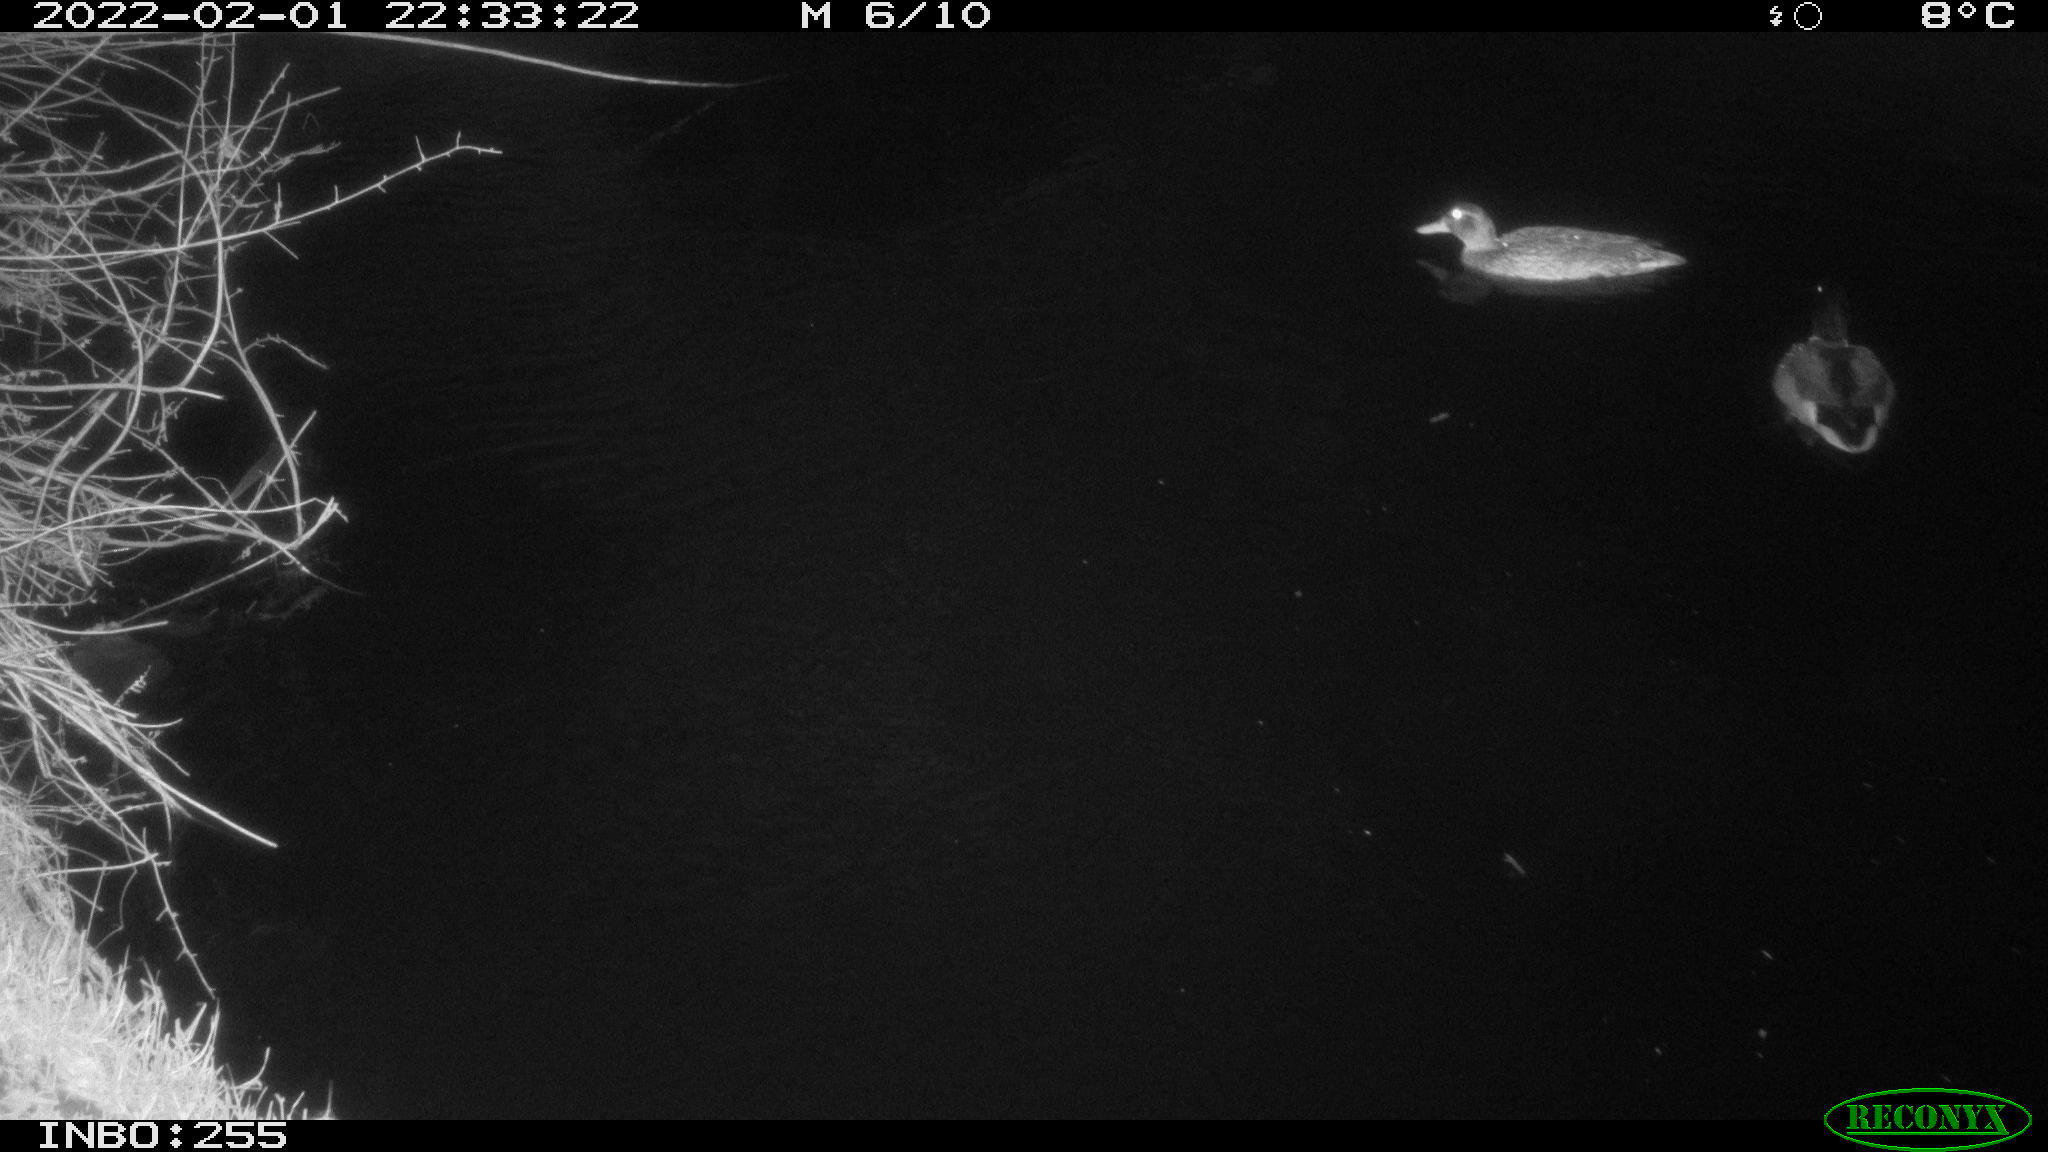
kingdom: Animalia
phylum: Chordata
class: Aves
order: Anseriformes
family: Anatidae
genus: Anas
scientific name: Anas
